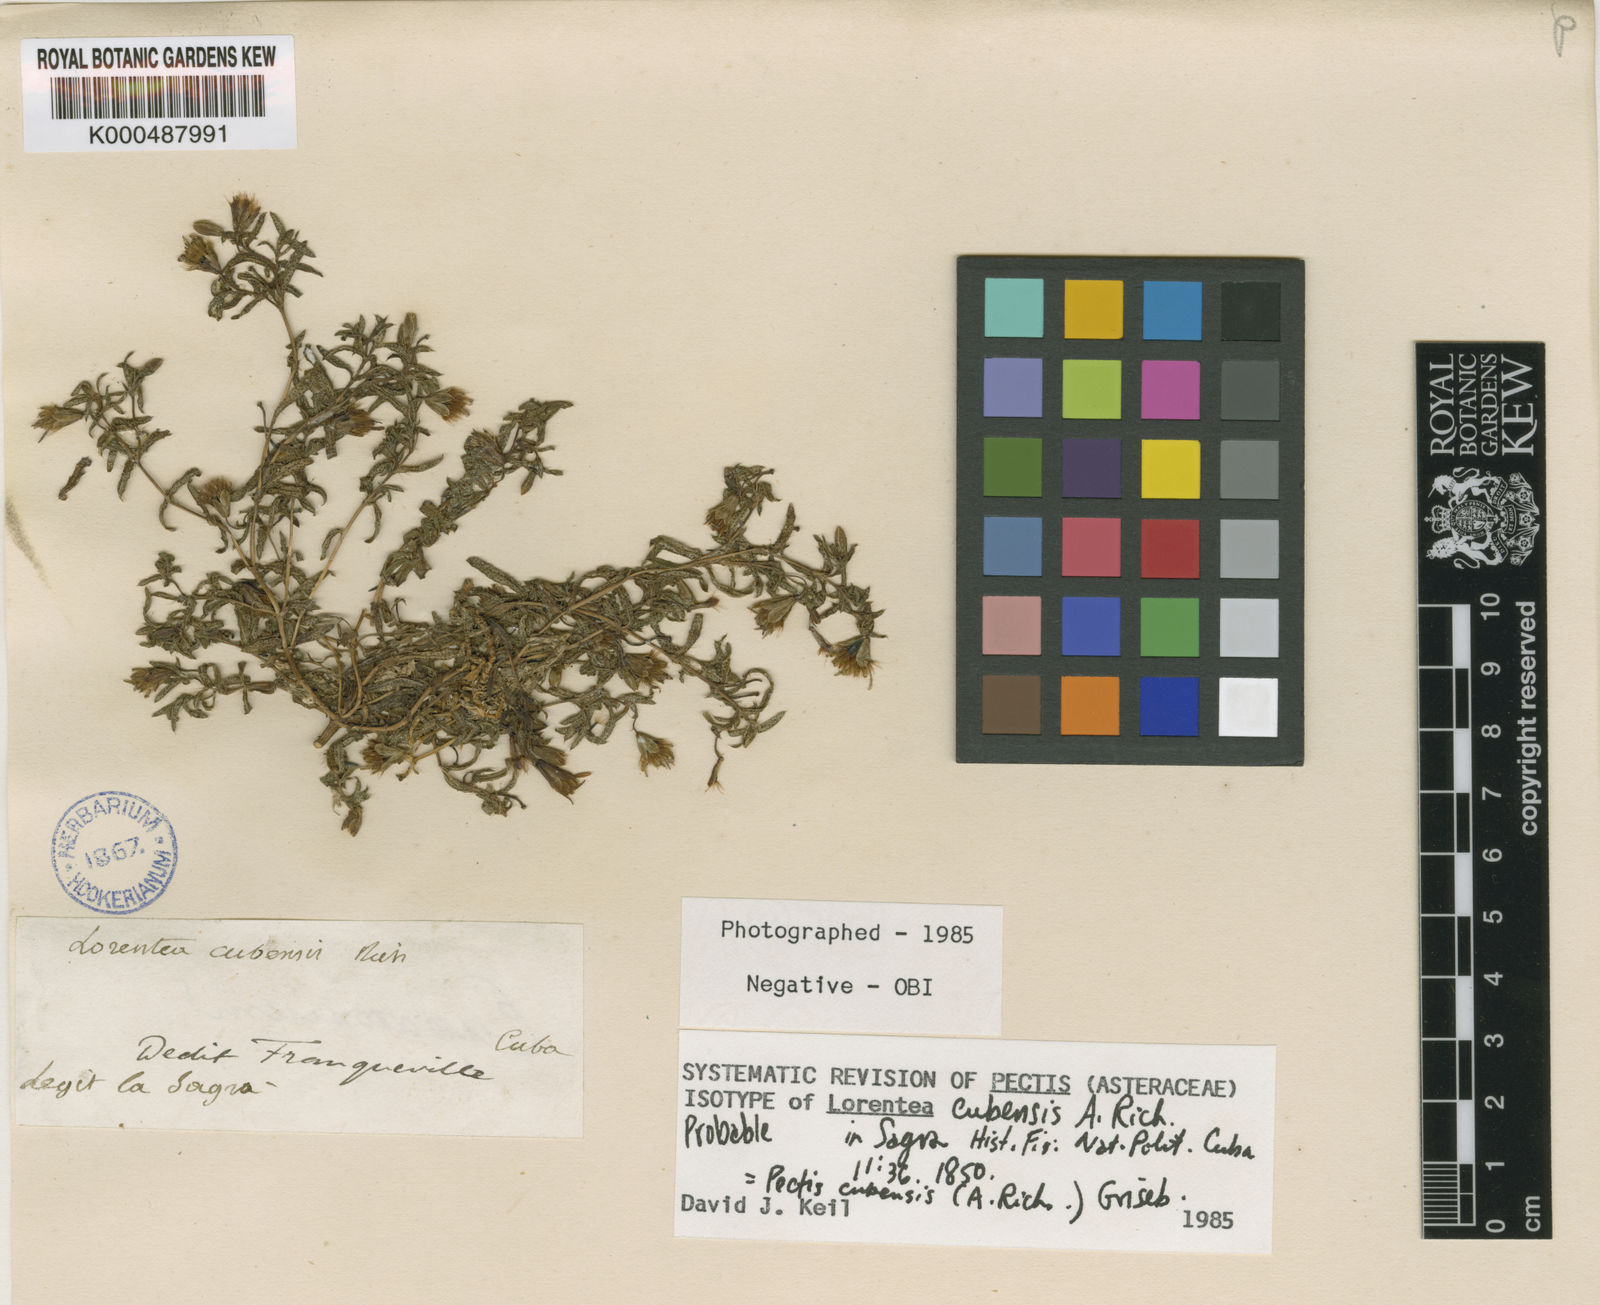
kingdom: Plantae
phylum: Tracheophyta
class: Magnoliopsida
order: Asterales
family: Asteraceae
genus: Pectis
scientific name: Pectis cubensis
